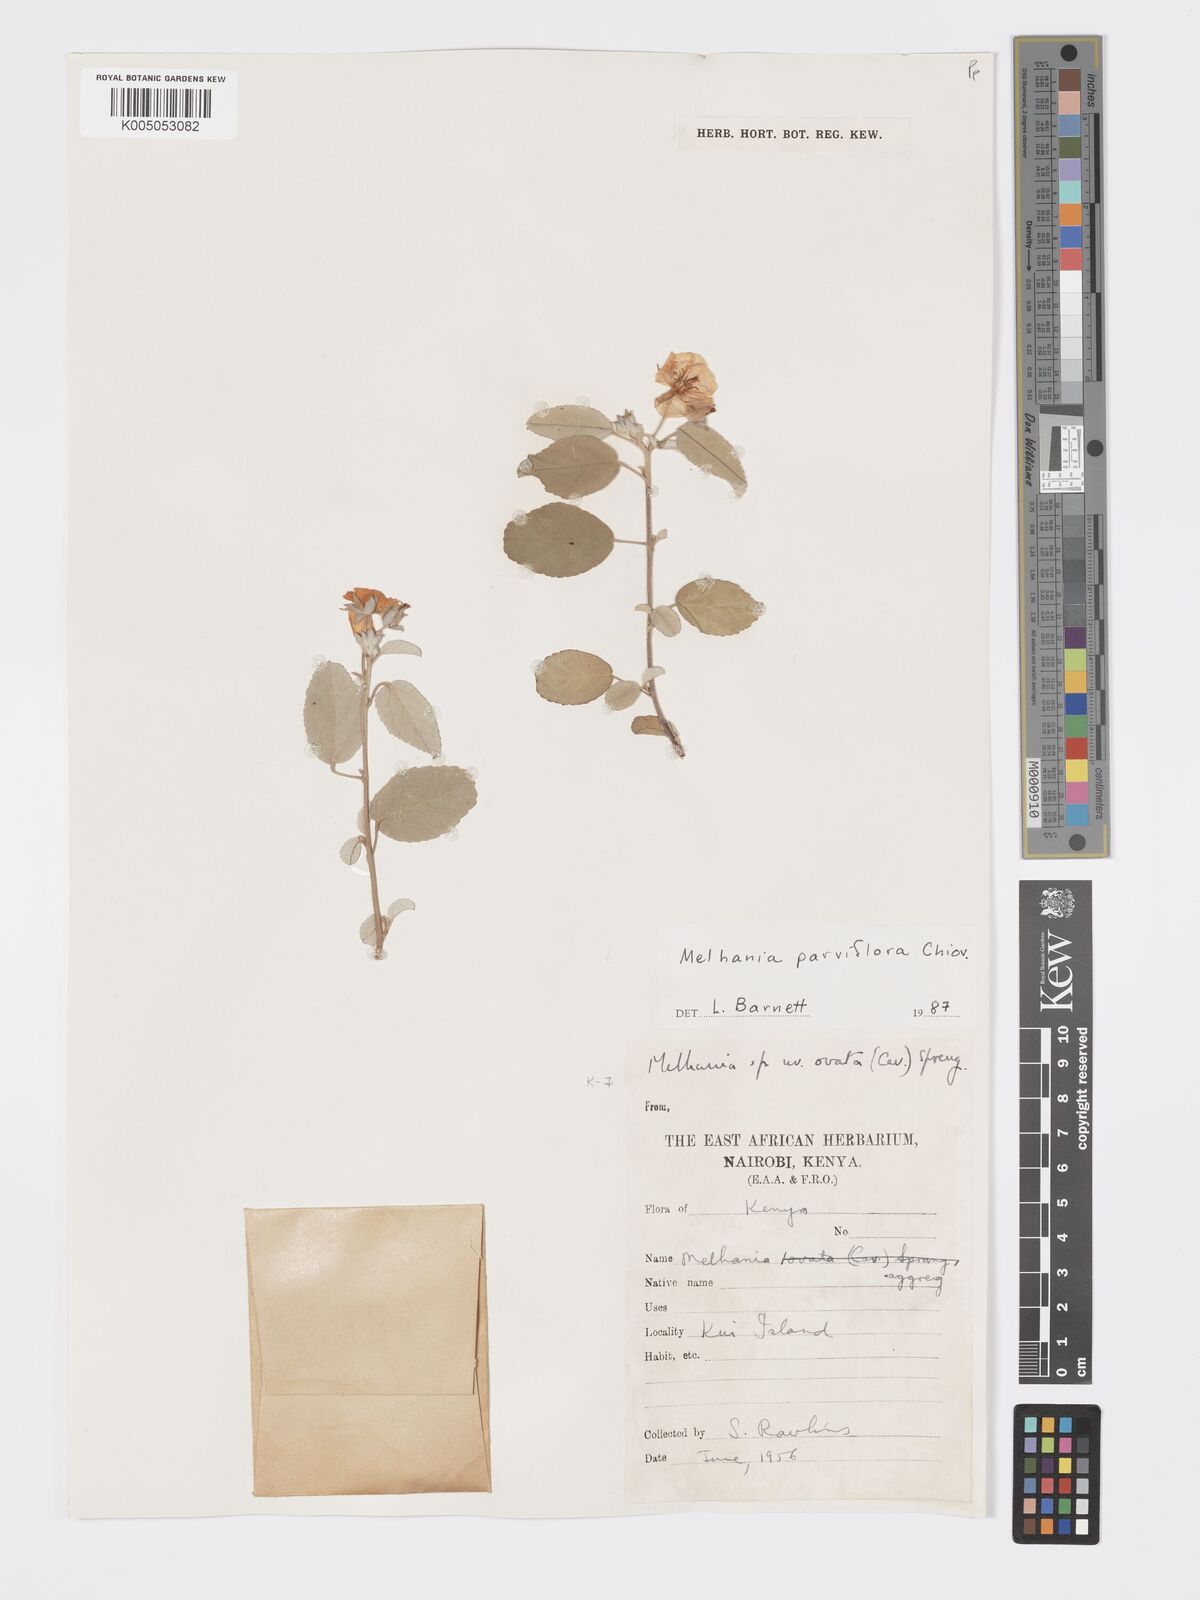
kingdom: Plantae
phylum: Tracheophyta
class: Magnoliopsida
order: Malvales
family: Malvaceae
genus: Melhania
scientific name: Melhania parviflora
